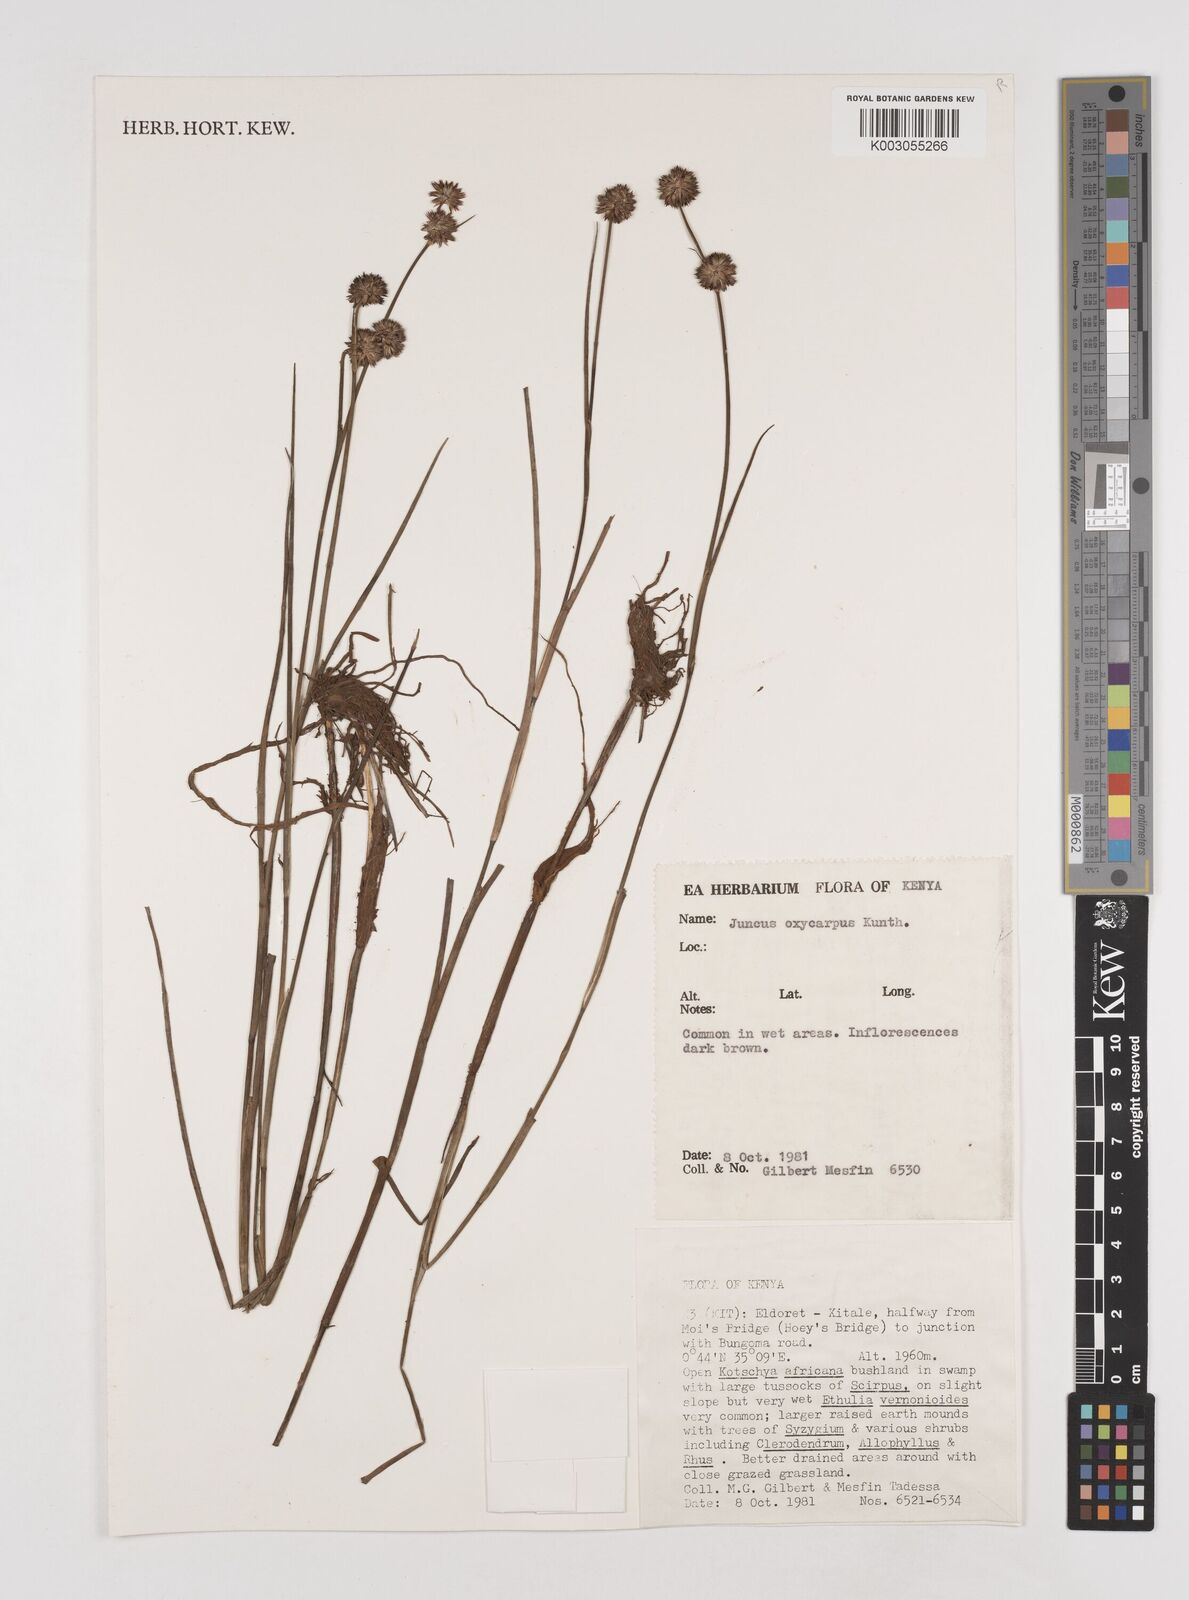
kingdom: Plantae
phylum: Tracheophyta
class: Liliopsida
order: Poales
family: Juncaceae
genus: Juncus
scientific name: Juncus oxycarpus
